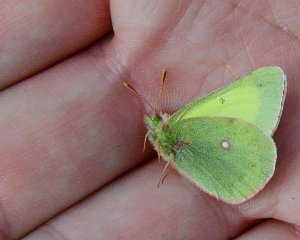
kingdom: Animalia
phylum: Arthropoda
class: Insecta
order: Lepidoptera
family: Pieridae
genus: Colias
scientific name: Colias
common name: Clouded Yellows
